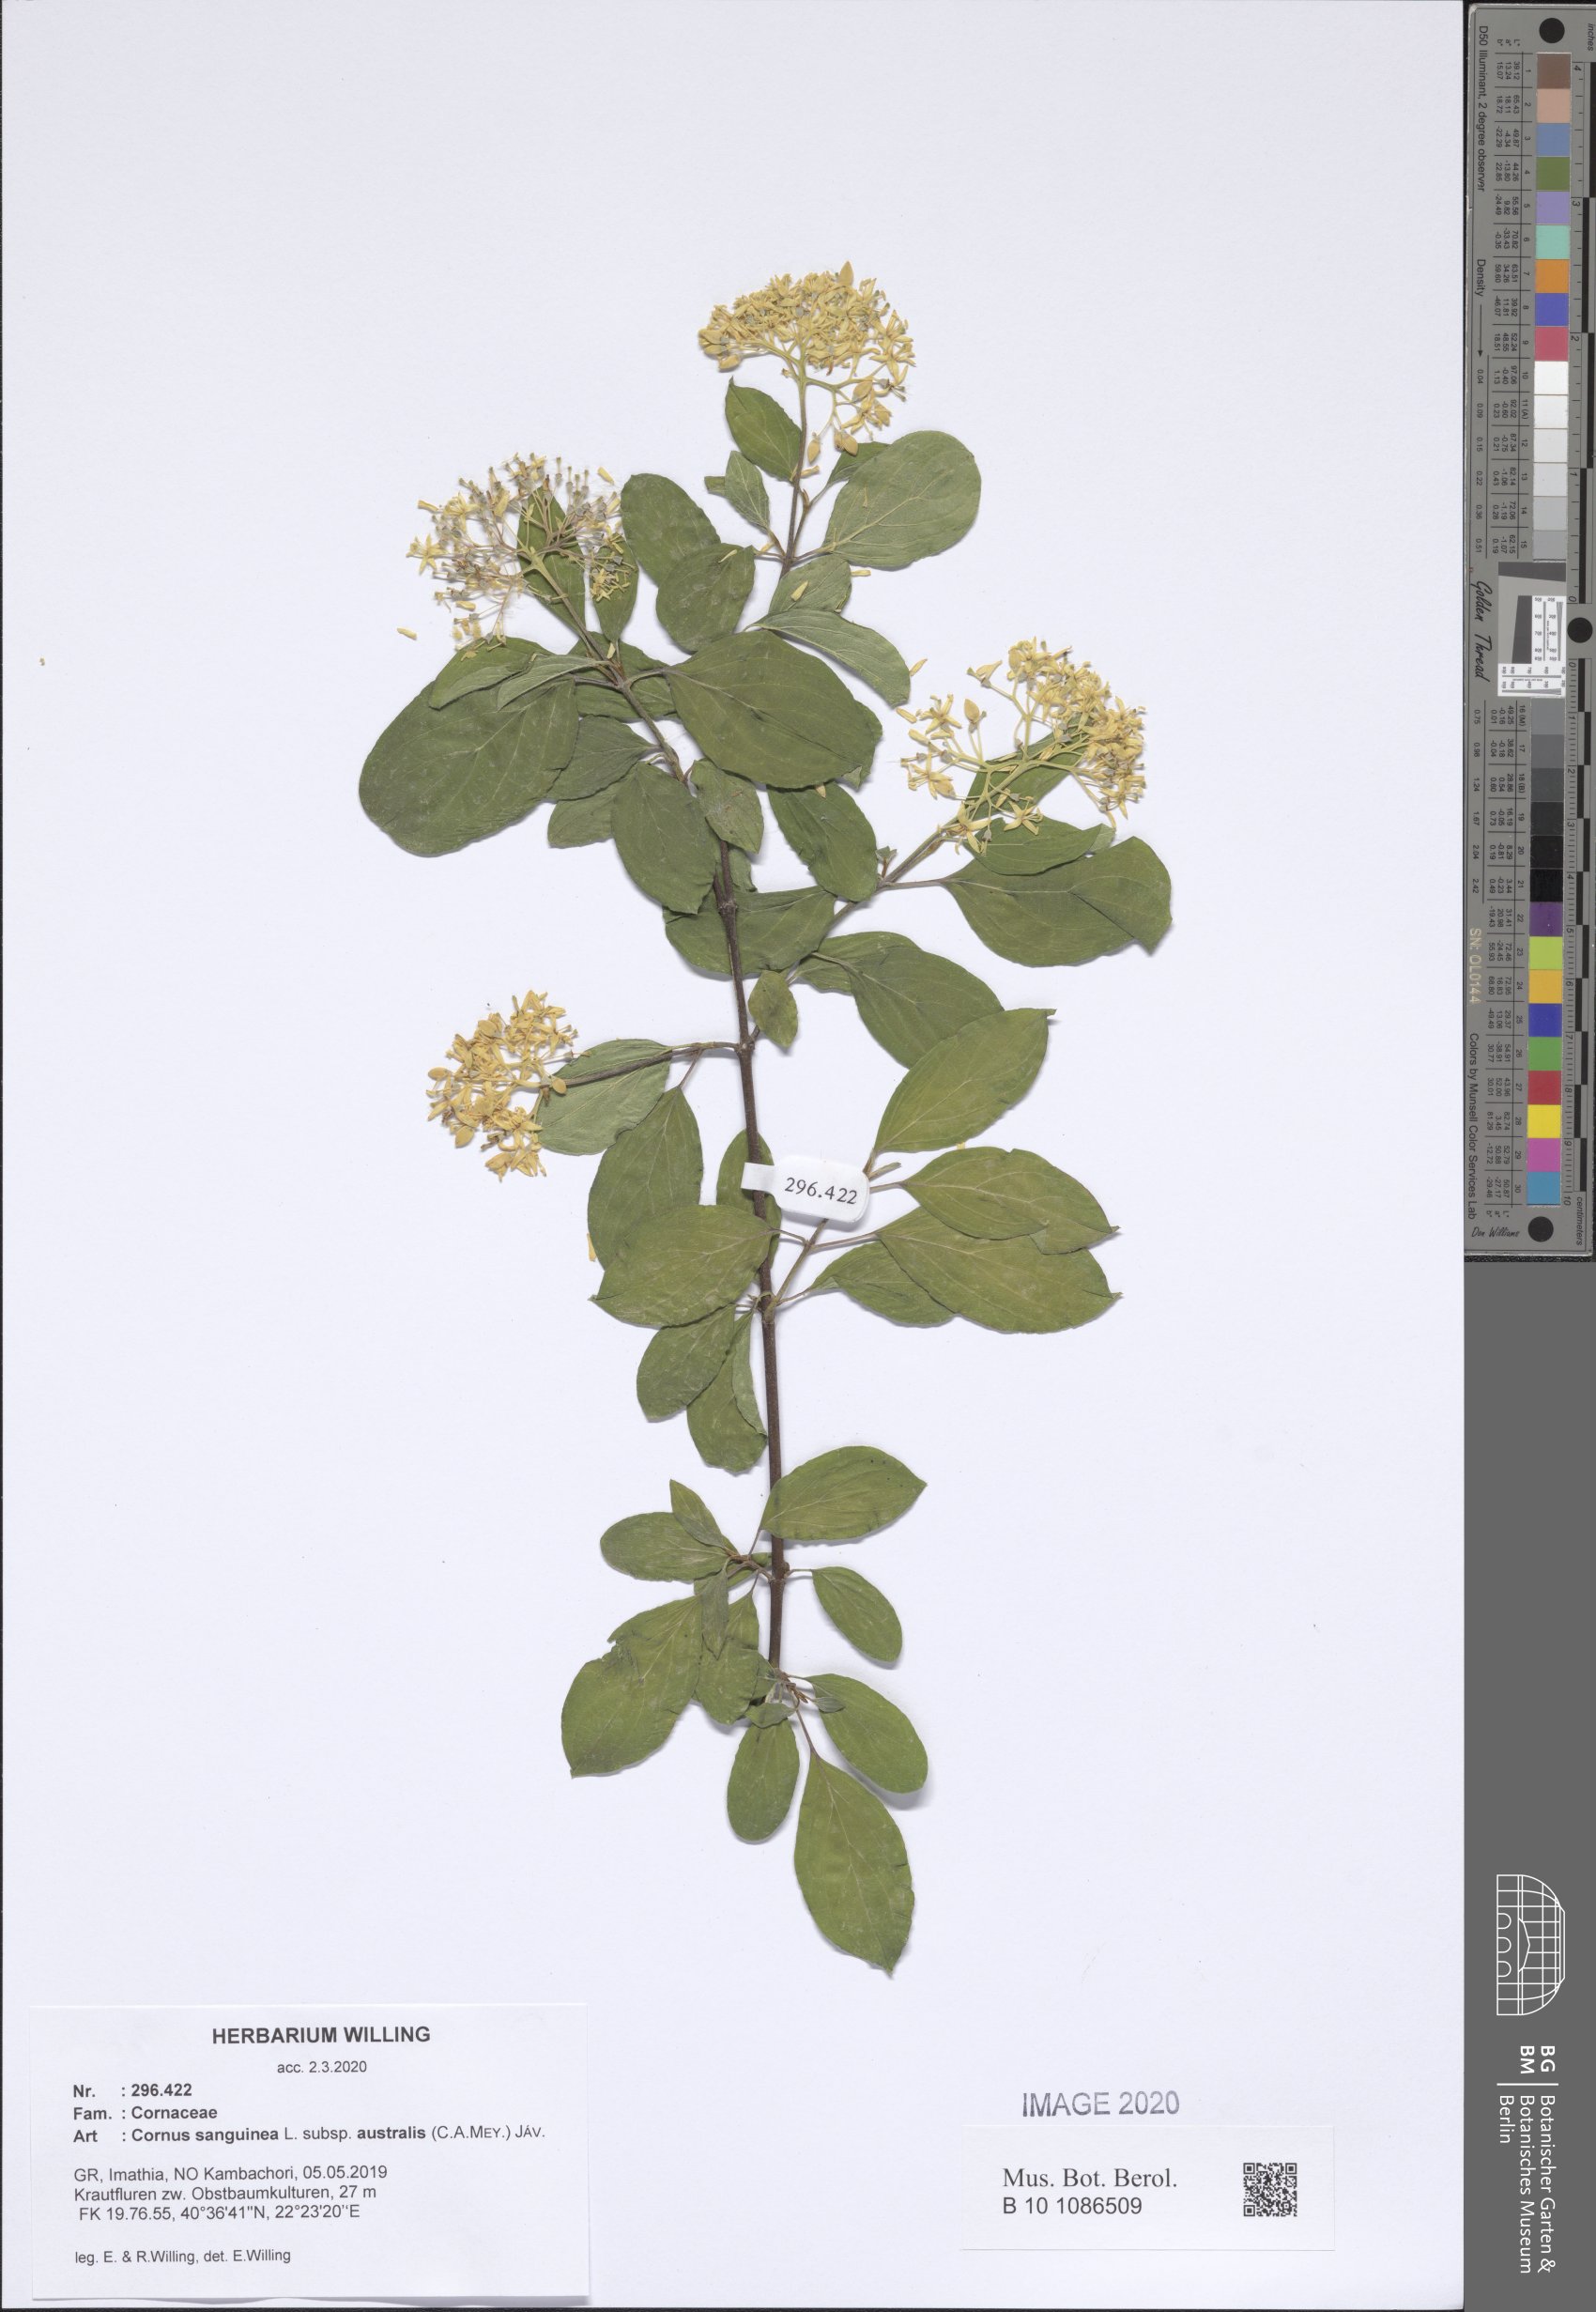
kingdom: Plantae
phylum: Tracheophyta
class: Magnoliopsida
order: Cornales
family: Cornaceae
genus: Cornus
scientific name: Cornus sanguinea
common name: Dogwood
